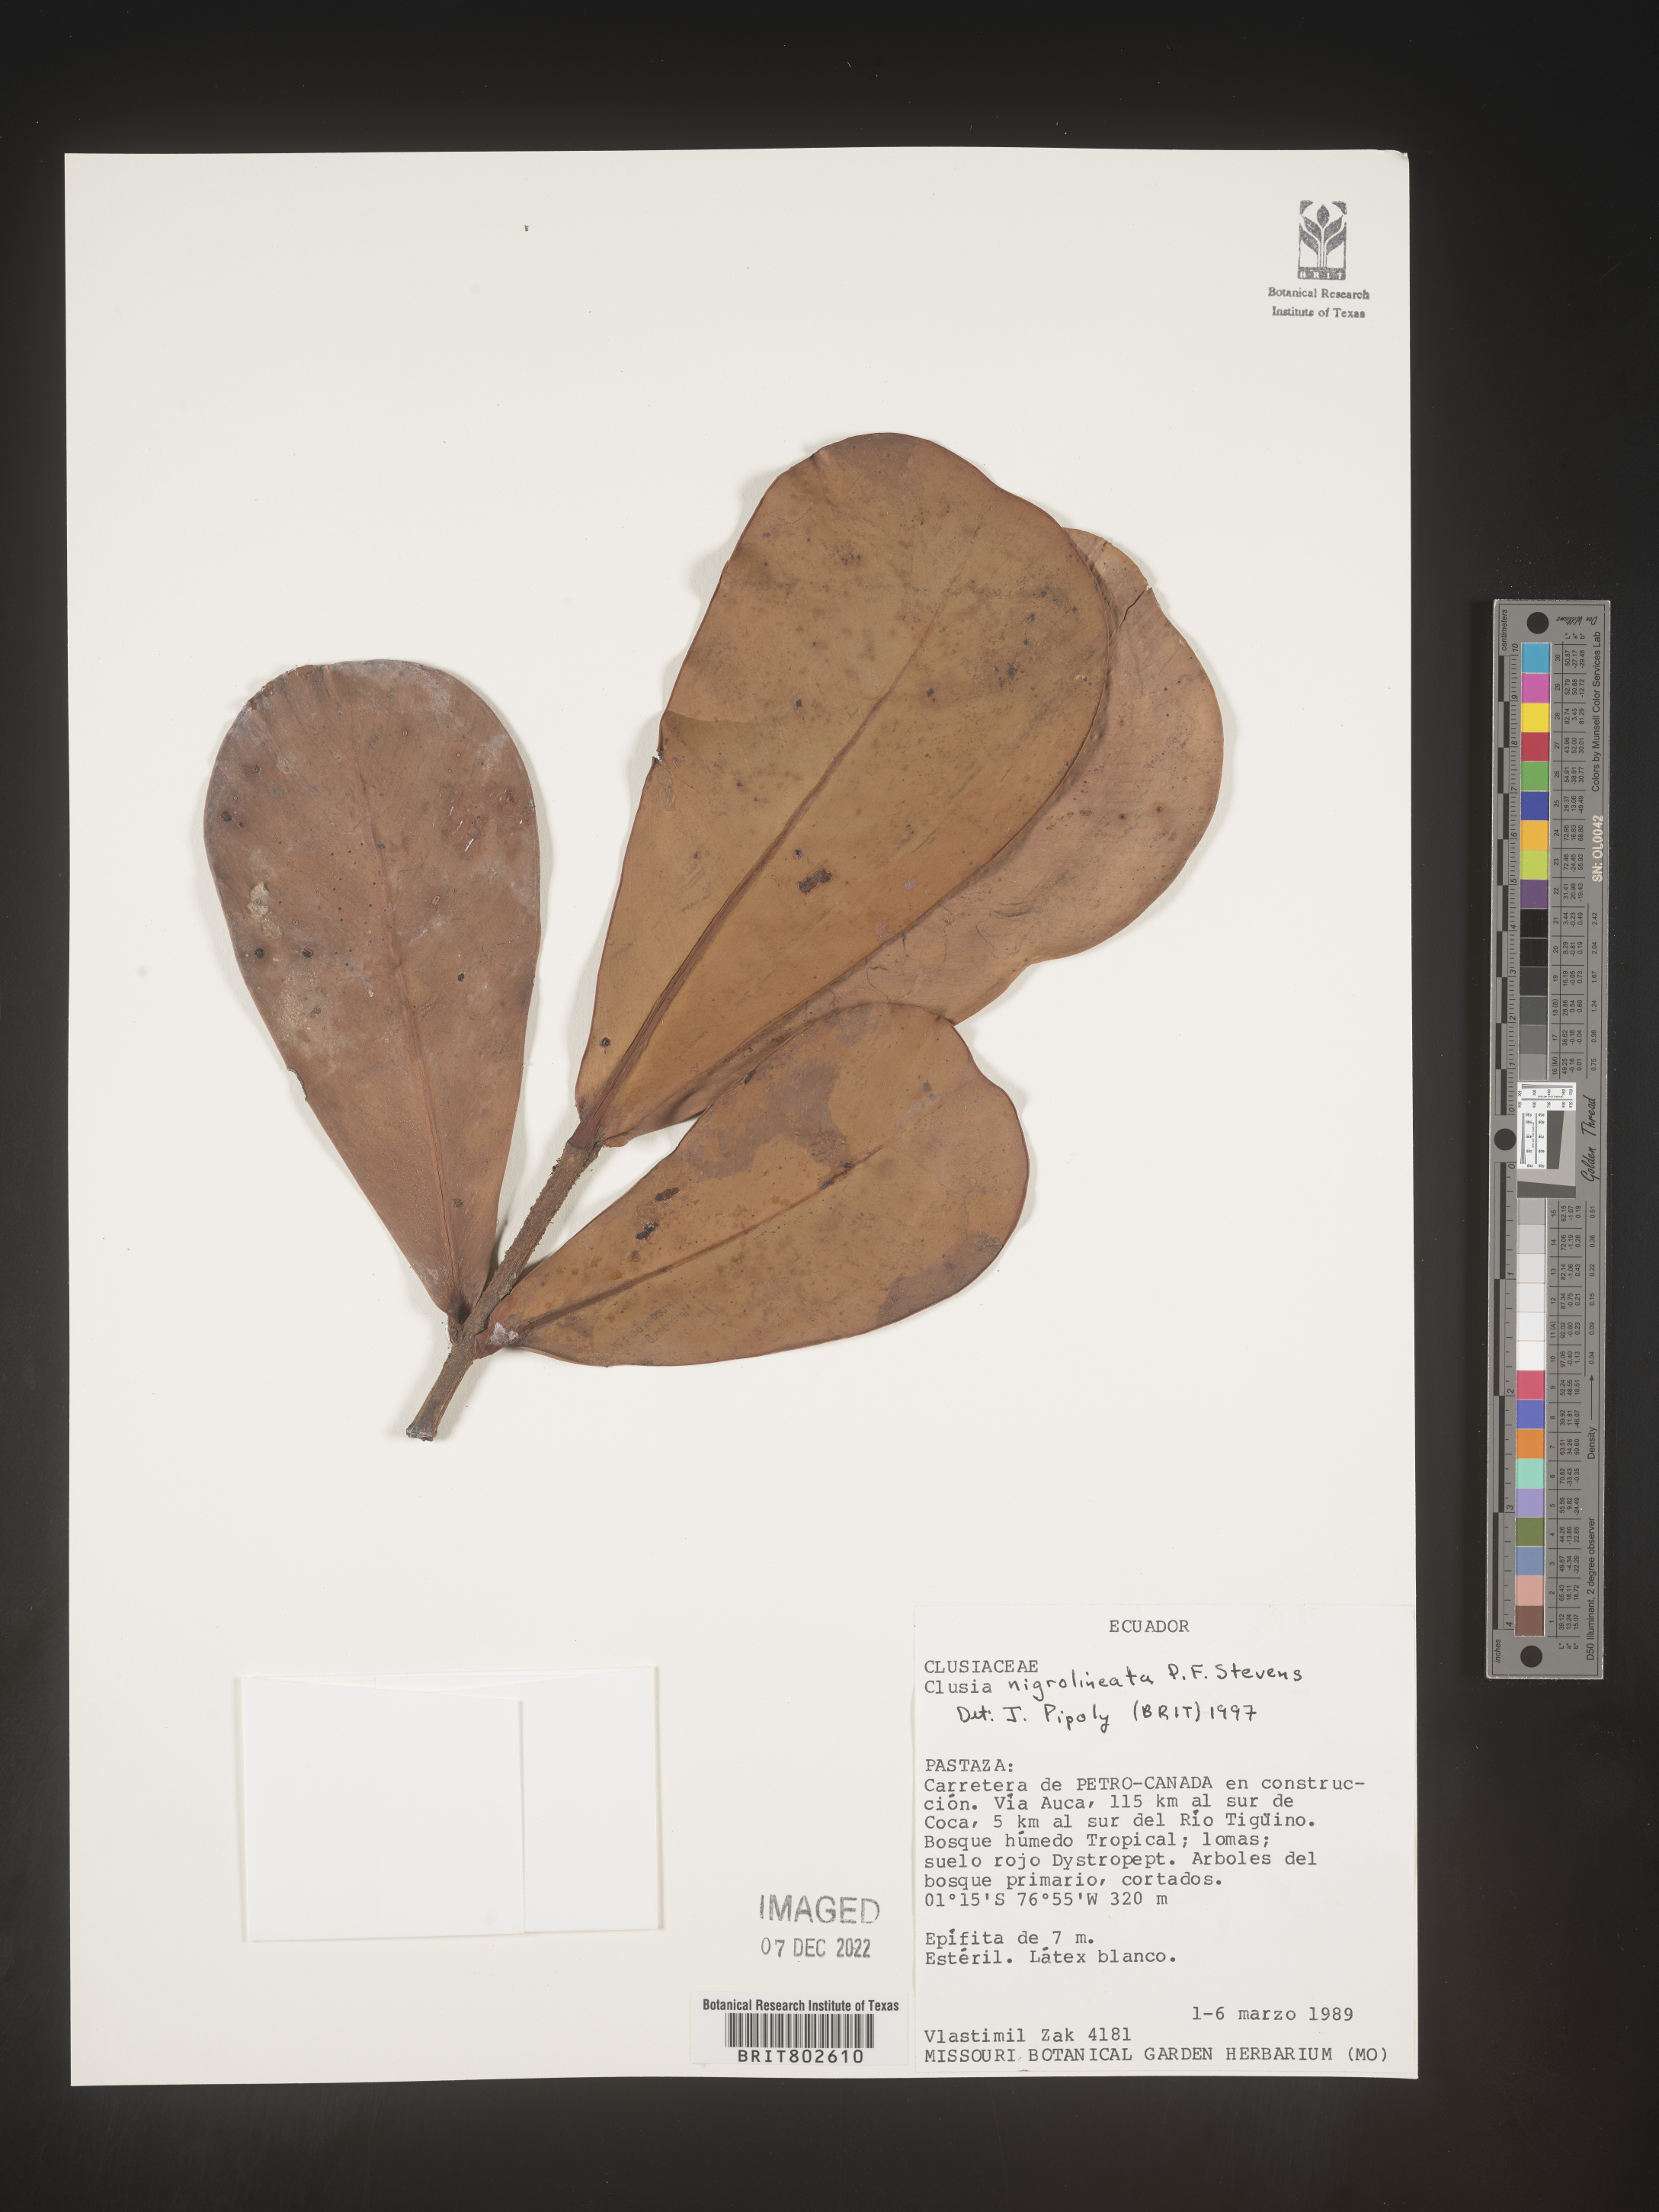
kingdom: Plantae
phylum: Tracheophyta
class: Magnoliopsida
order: Malpighiales
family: Clusiaceae
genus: Clusia
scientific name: Clusia nigrolineata
